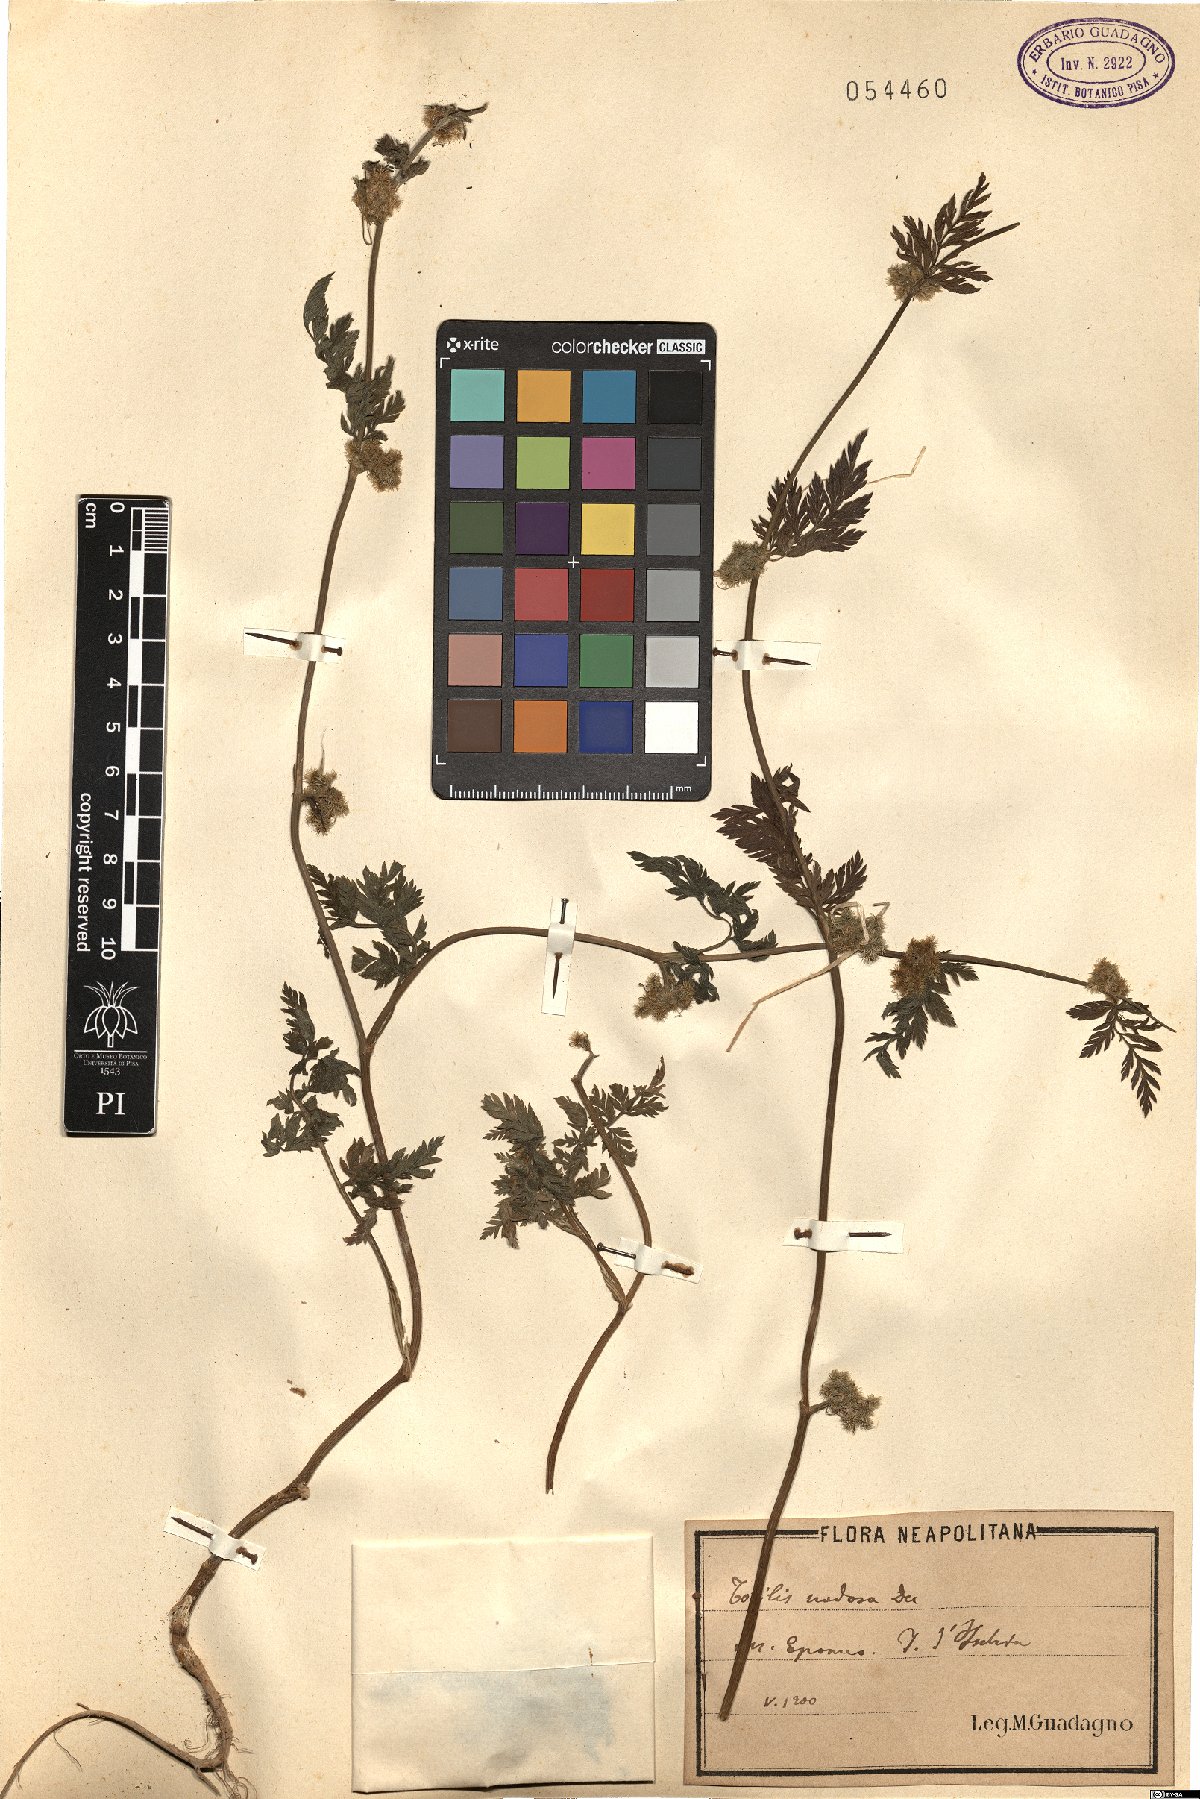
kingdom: Plantae
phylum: Tracheophyta
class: Magnoliopsida
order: Apiales
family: Apiaceae
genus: Torilis
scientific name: Torilis nodosa
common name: Knotted hedge-parsley
